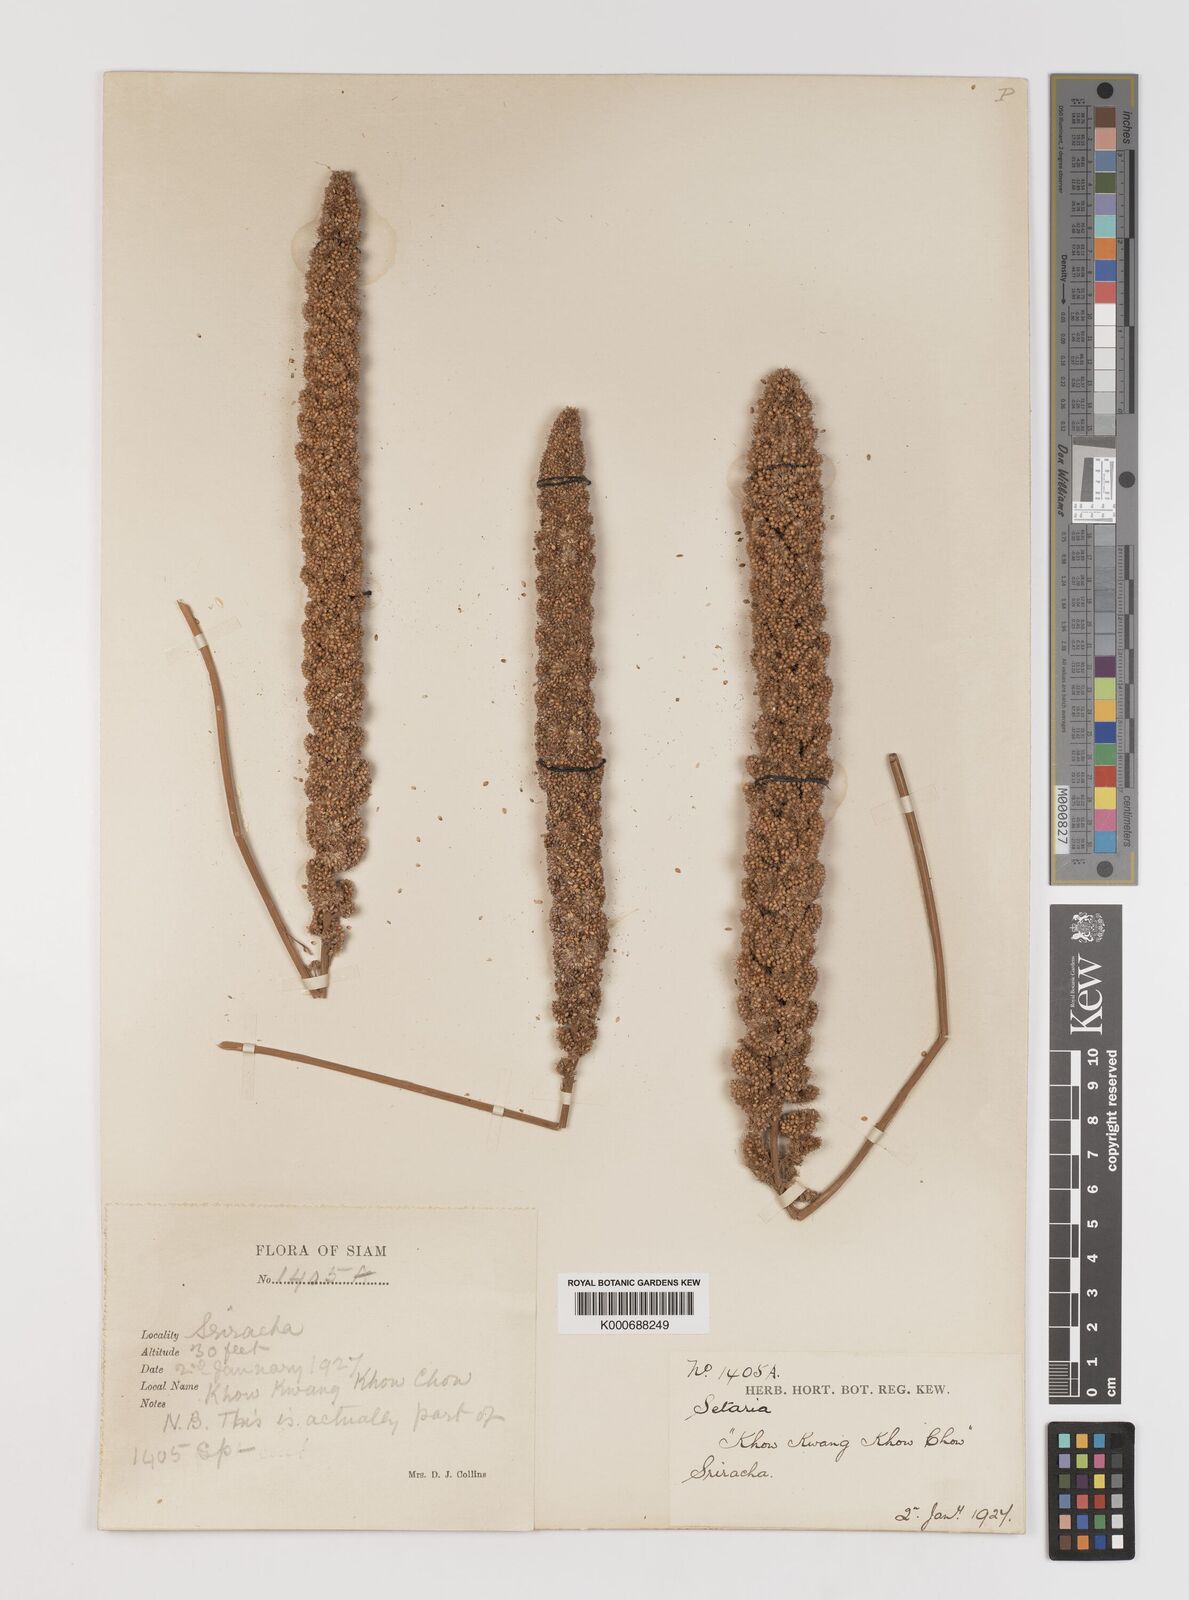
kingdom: Plantae
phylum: Tracheophyta
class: Liliopsida
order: Poales
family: Poaceae
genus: Setaria
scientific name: Setaria italica
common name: Foxtail bristle-grass
